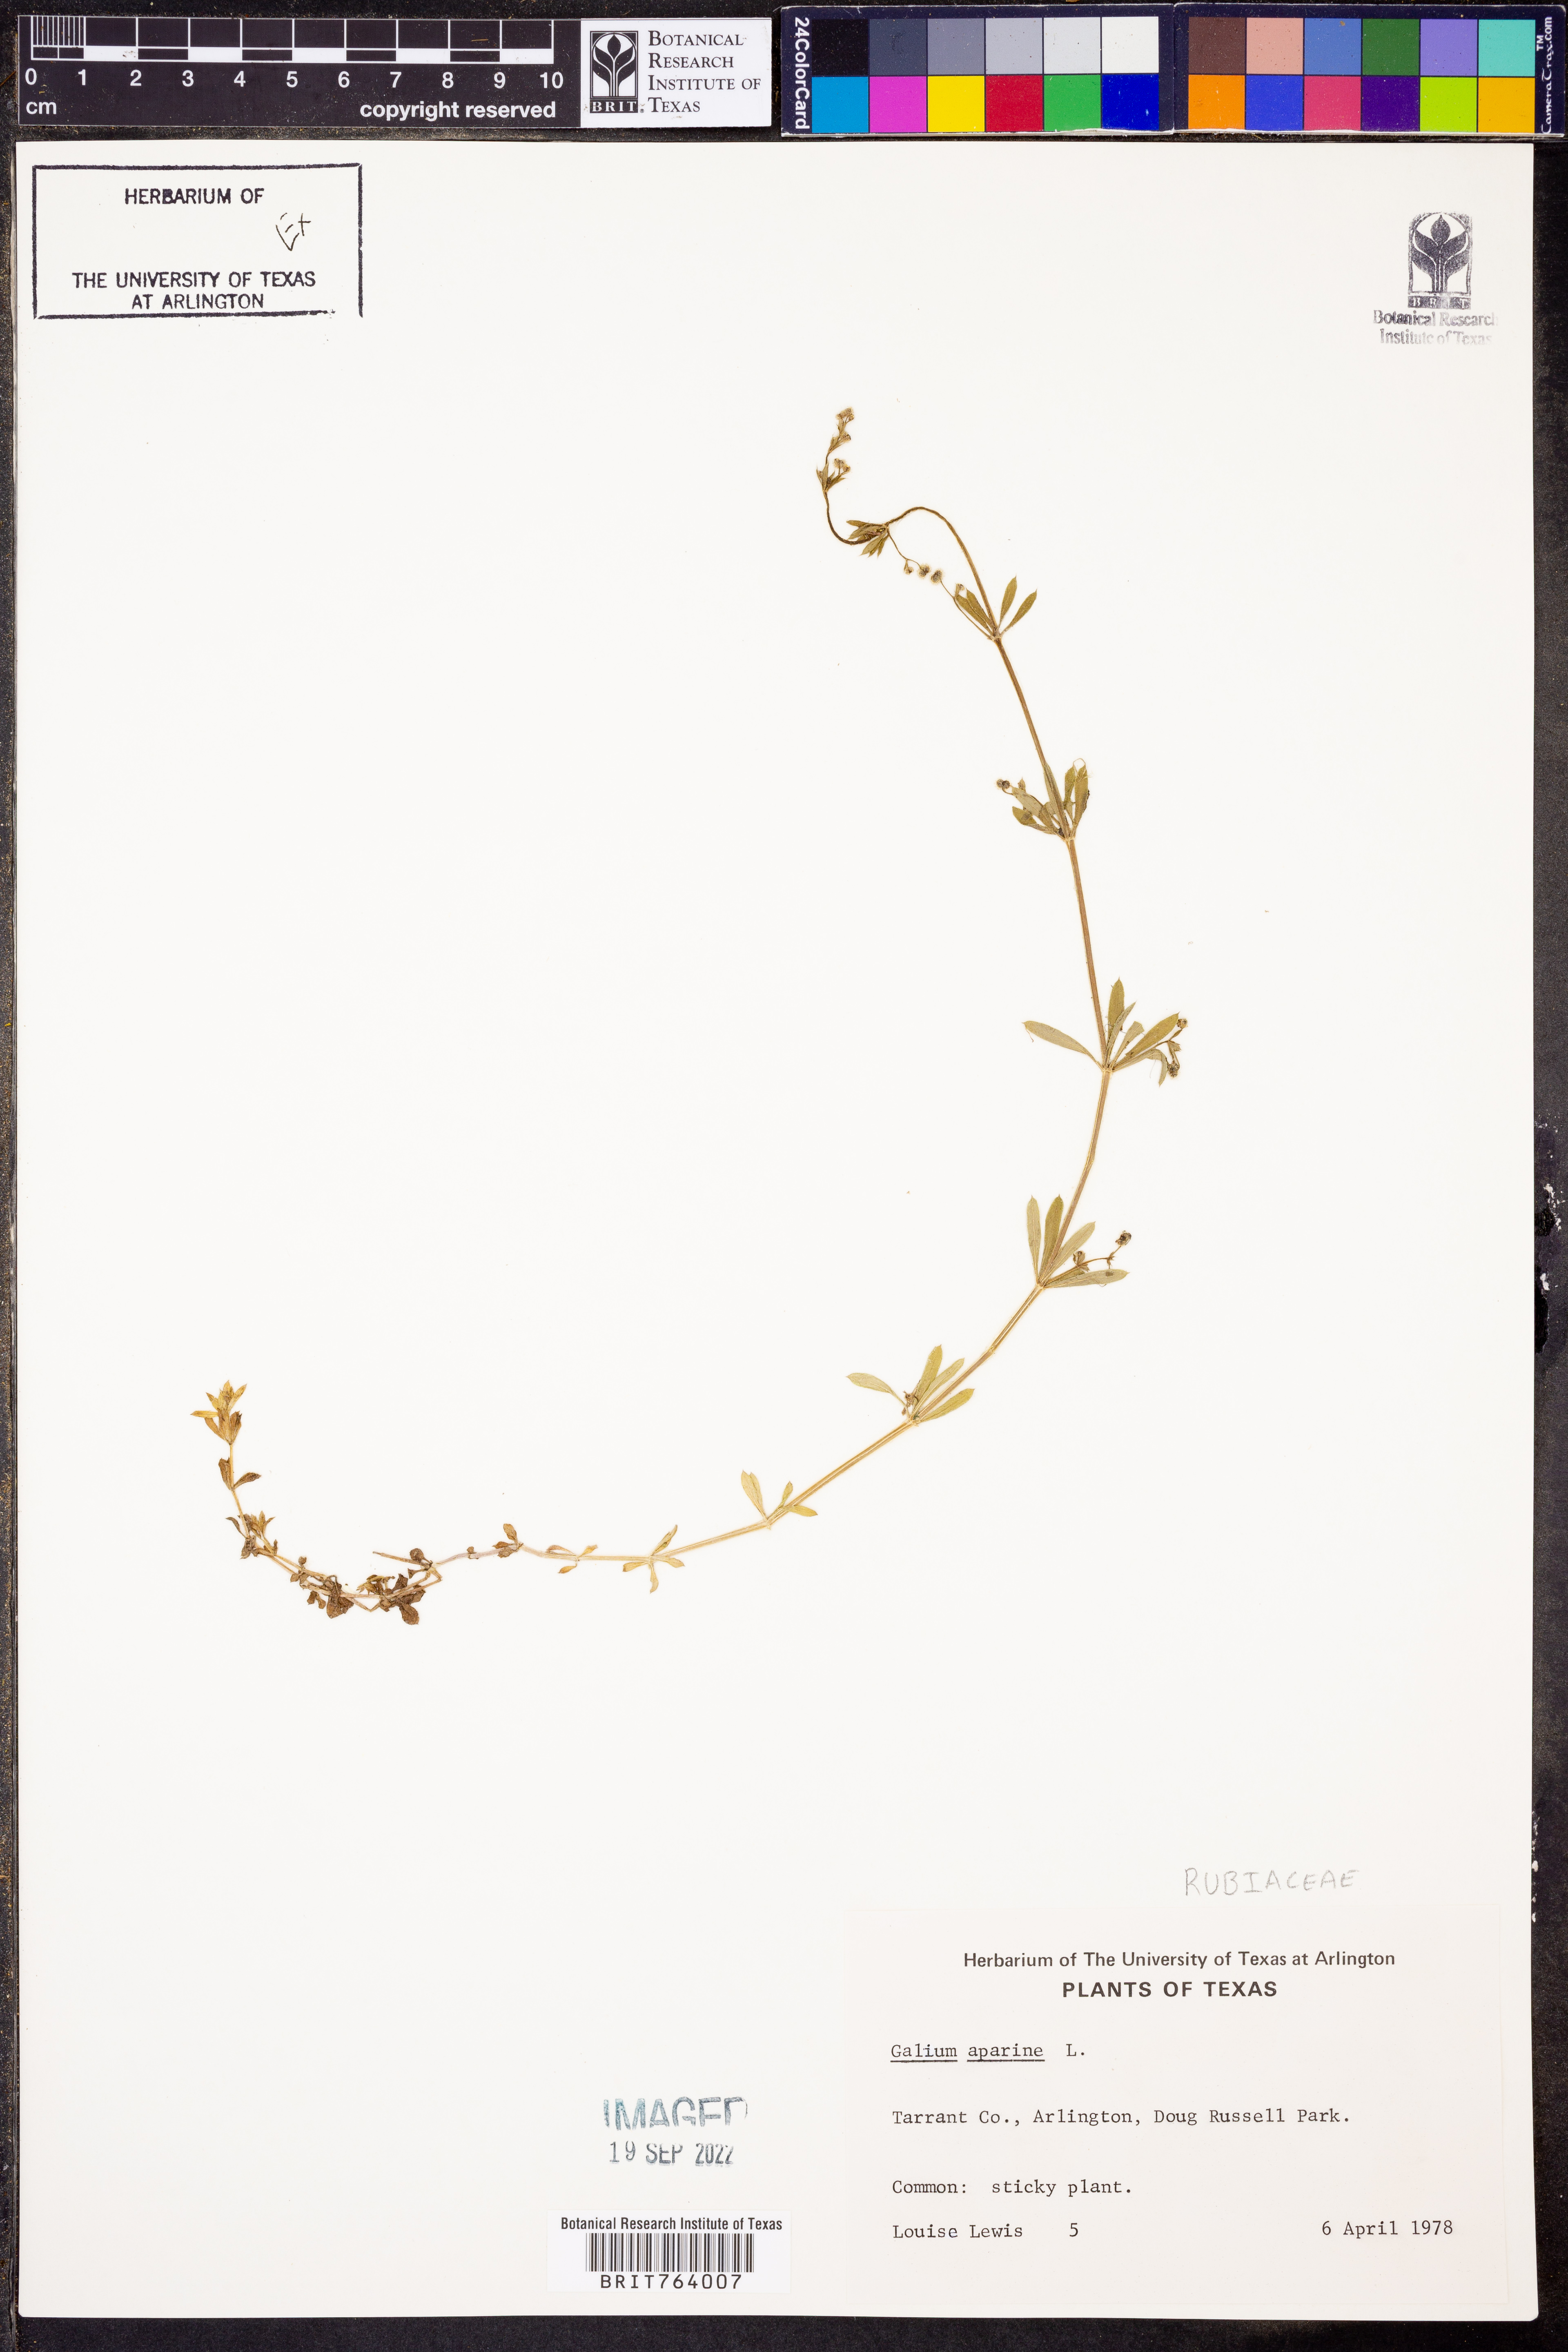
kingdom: Plantae
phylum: Tracheophyta
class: Magnoliopsida
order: Gentianales
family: Rubiaceae
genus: Galium
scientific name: Galium aparine
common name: Cleavers
